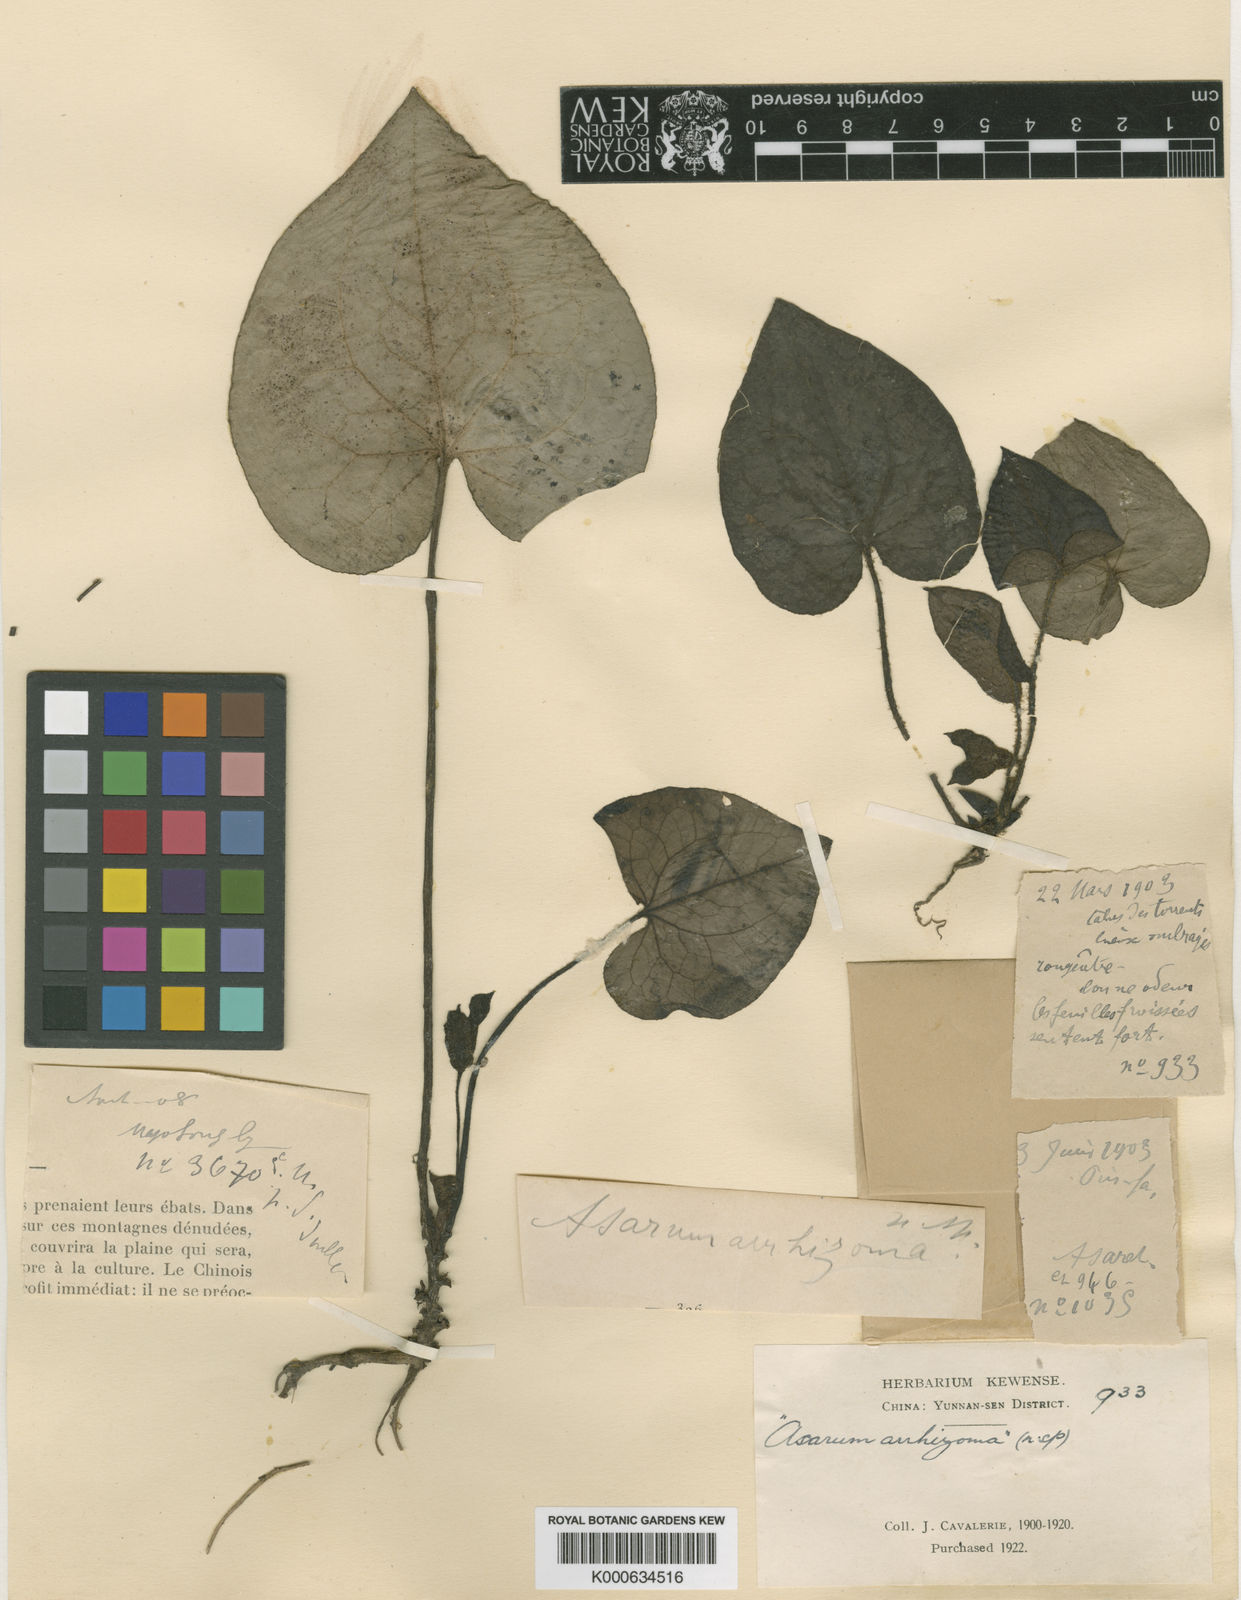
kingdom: Plantae
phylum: Tracheophyta
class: Magnoliopsida
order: Piperales
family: Aristolochiaceae
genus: Asarum
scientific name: Asarum
